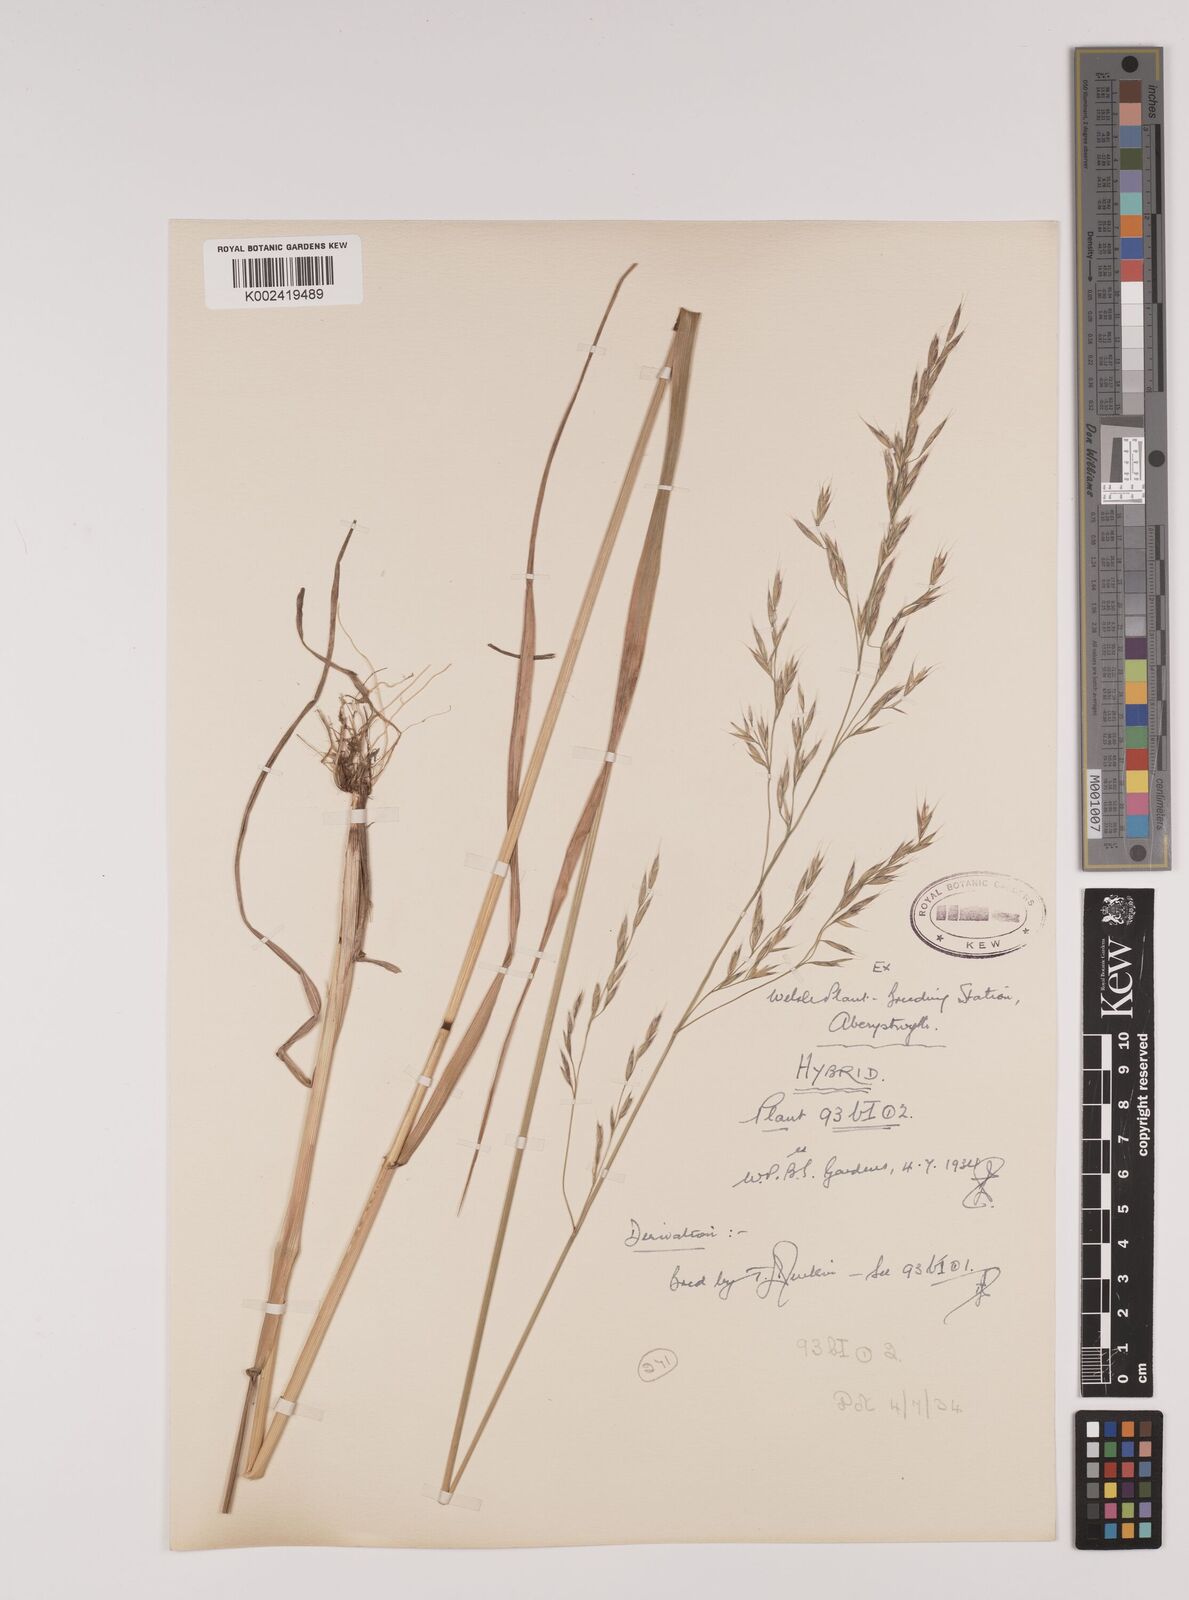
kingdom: Plantae
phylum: Tracheophyta
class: Liliopsida
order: Poales
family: Poaceae
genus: Lolium
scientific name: Lolium giganteum
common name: Giant fescue
